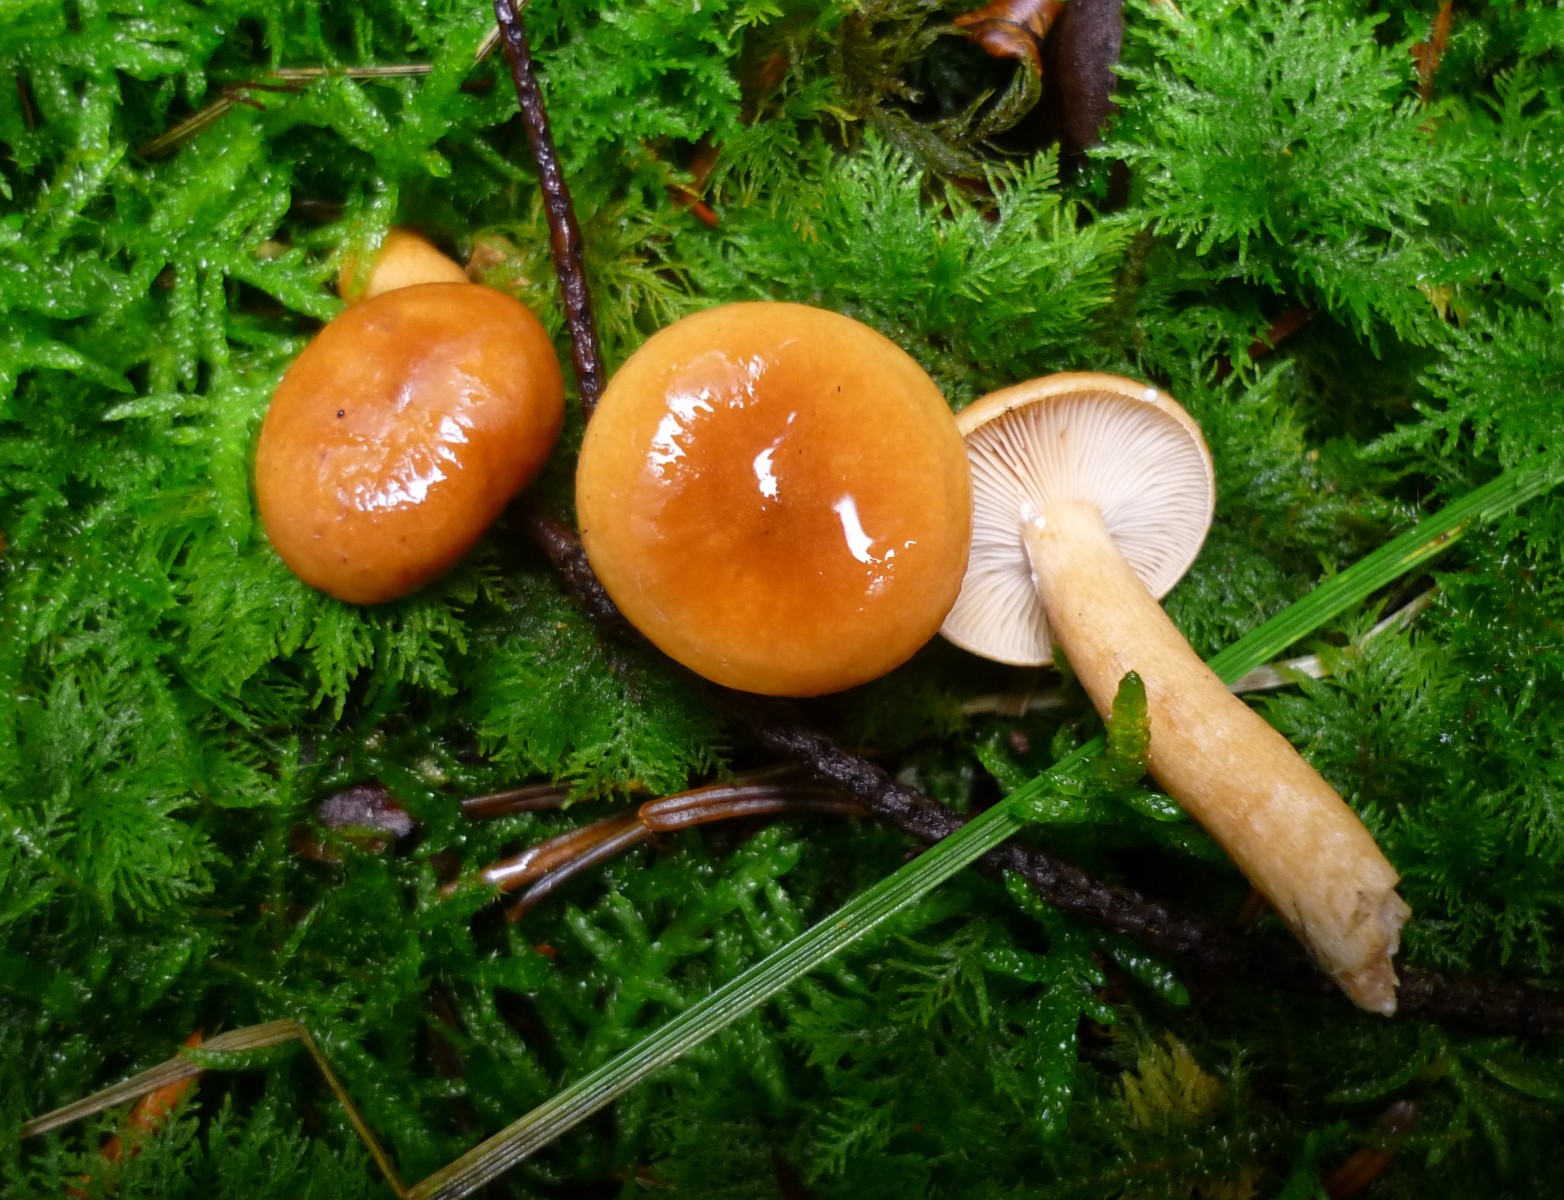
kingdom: Fungi
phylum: Basidiomycota
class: Agaricomycetes
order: Russulales
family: Russulaceae
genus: Lactarius
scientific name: Lactarius aurantiacus
